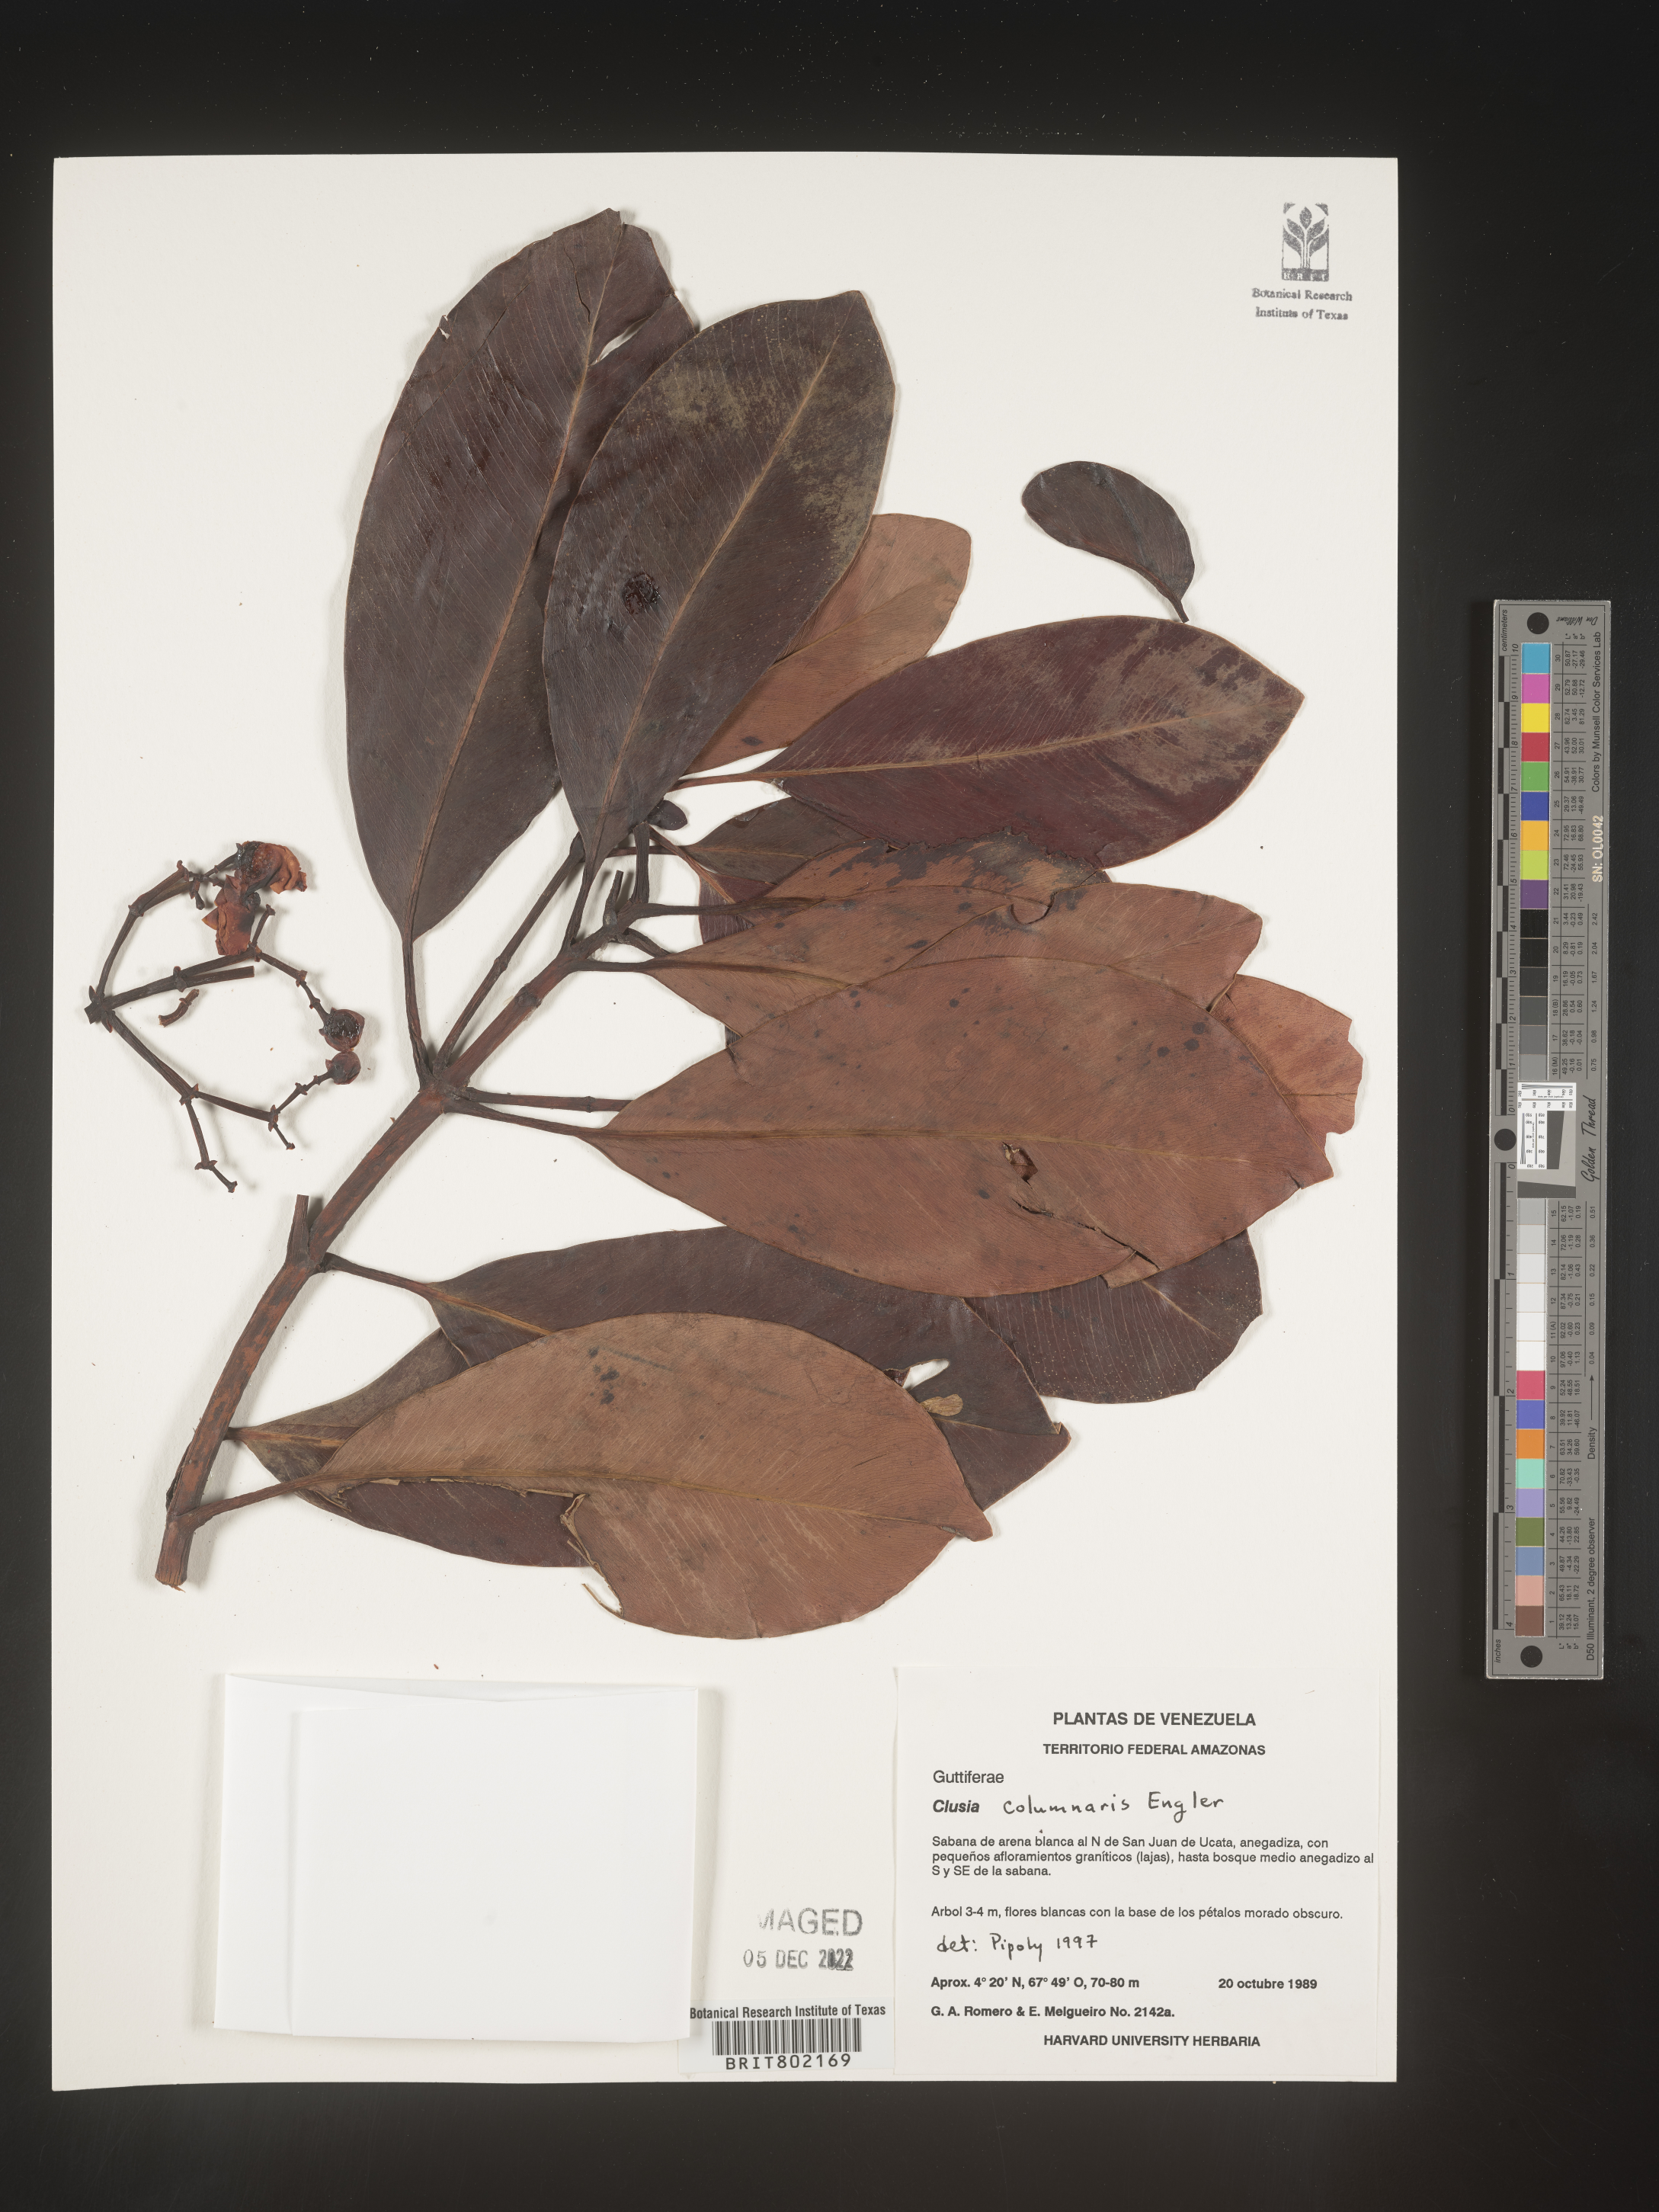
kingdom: Plantae
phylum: Tracheophyta
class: Magnoliopsida
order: Malpighiales
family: Clusiaceae
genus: Clusia
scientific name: Clusia columnaris
